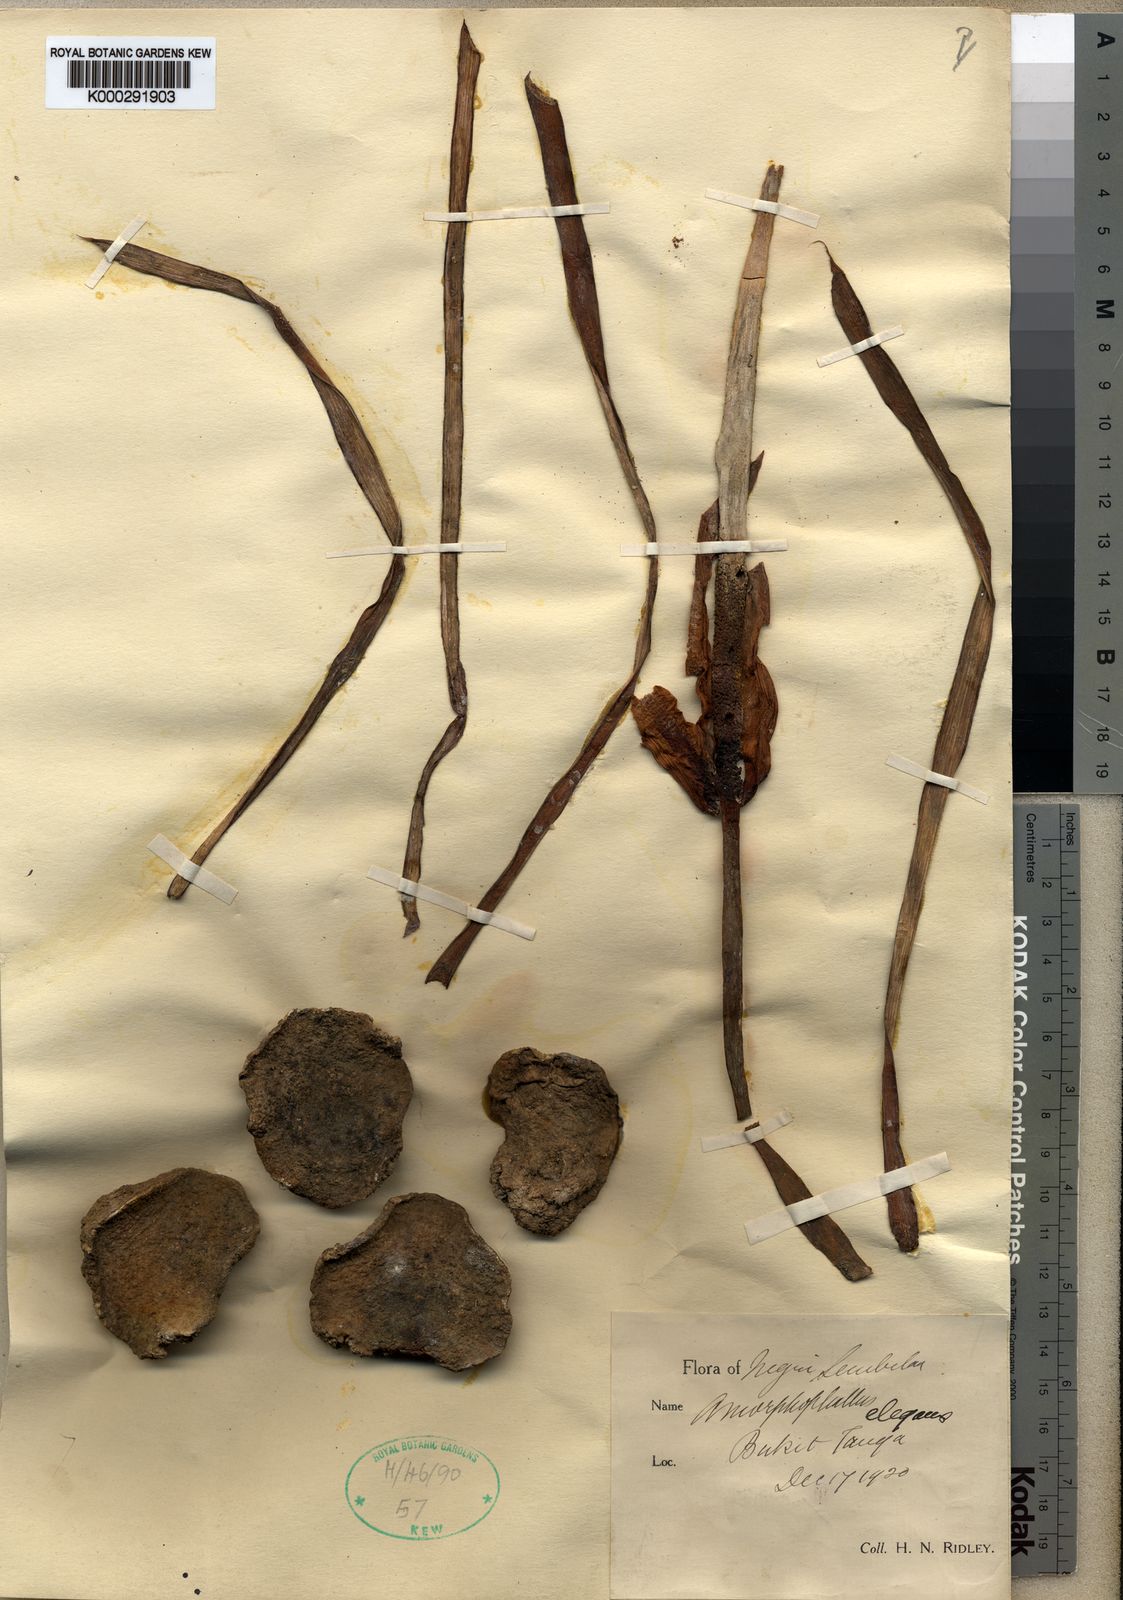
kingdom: Plantae
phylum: Tracheophyta
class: Liliopsida
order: Alismatales
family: Araceae
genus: Amorphophallus
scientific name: Amorphophallus elegans
